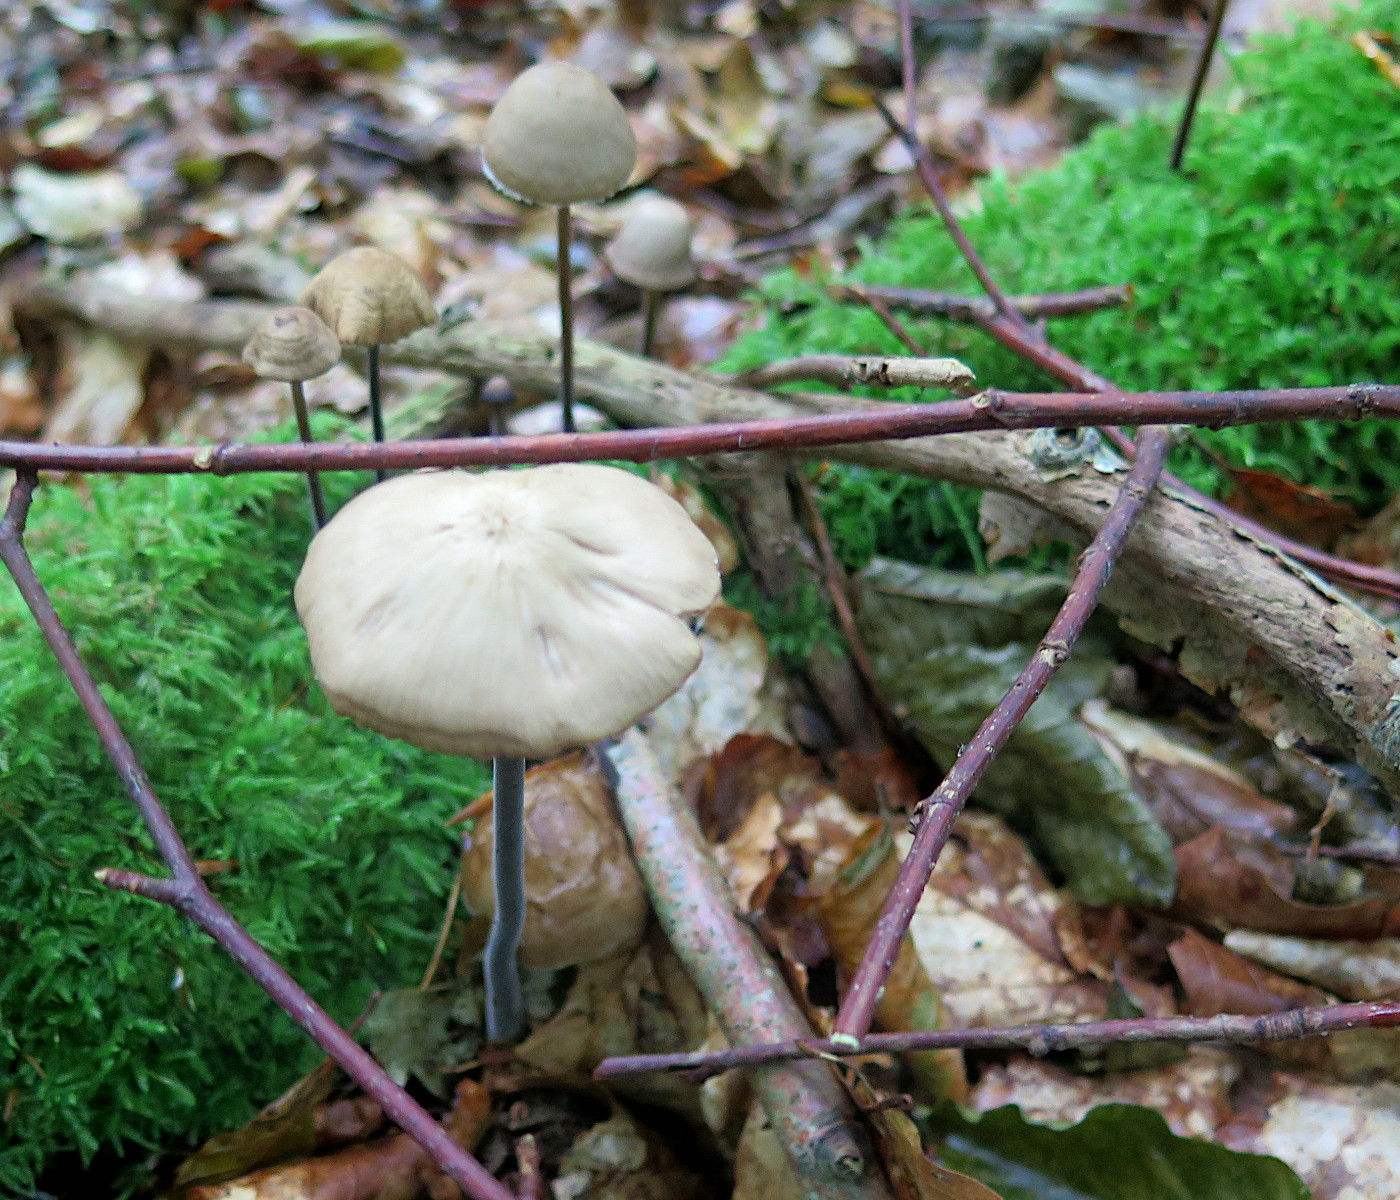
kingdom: Fungi
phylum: Basidiomycota
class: Agaricomycetes
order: Agaricales
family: Omphalotaceae
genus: Mycetinis
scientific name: Mycetinis alliaceus
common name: stor løghat
